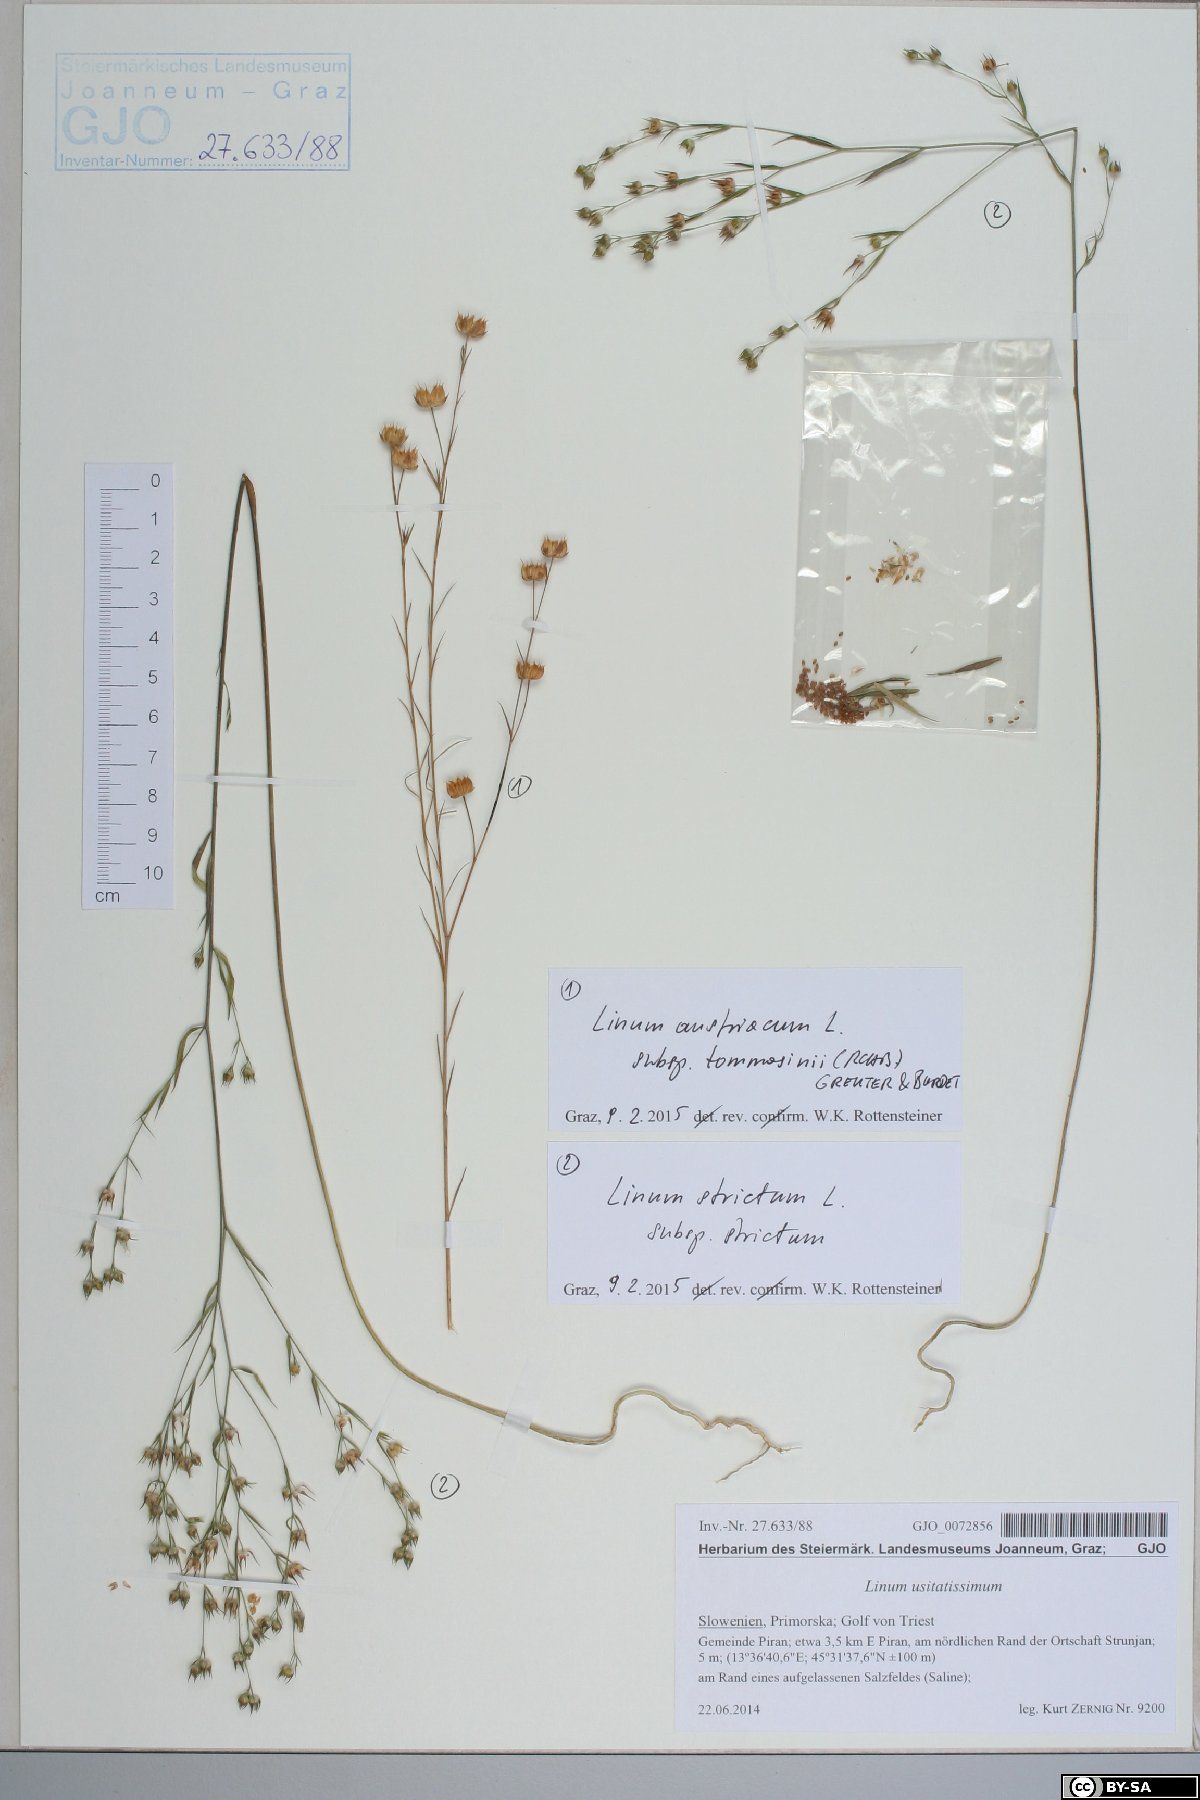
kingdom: Plantae
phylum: Tracheophyta
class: Magnoliopsida
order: Malpighiales
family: Linaceae
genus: Linum
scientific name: Linum strictum
